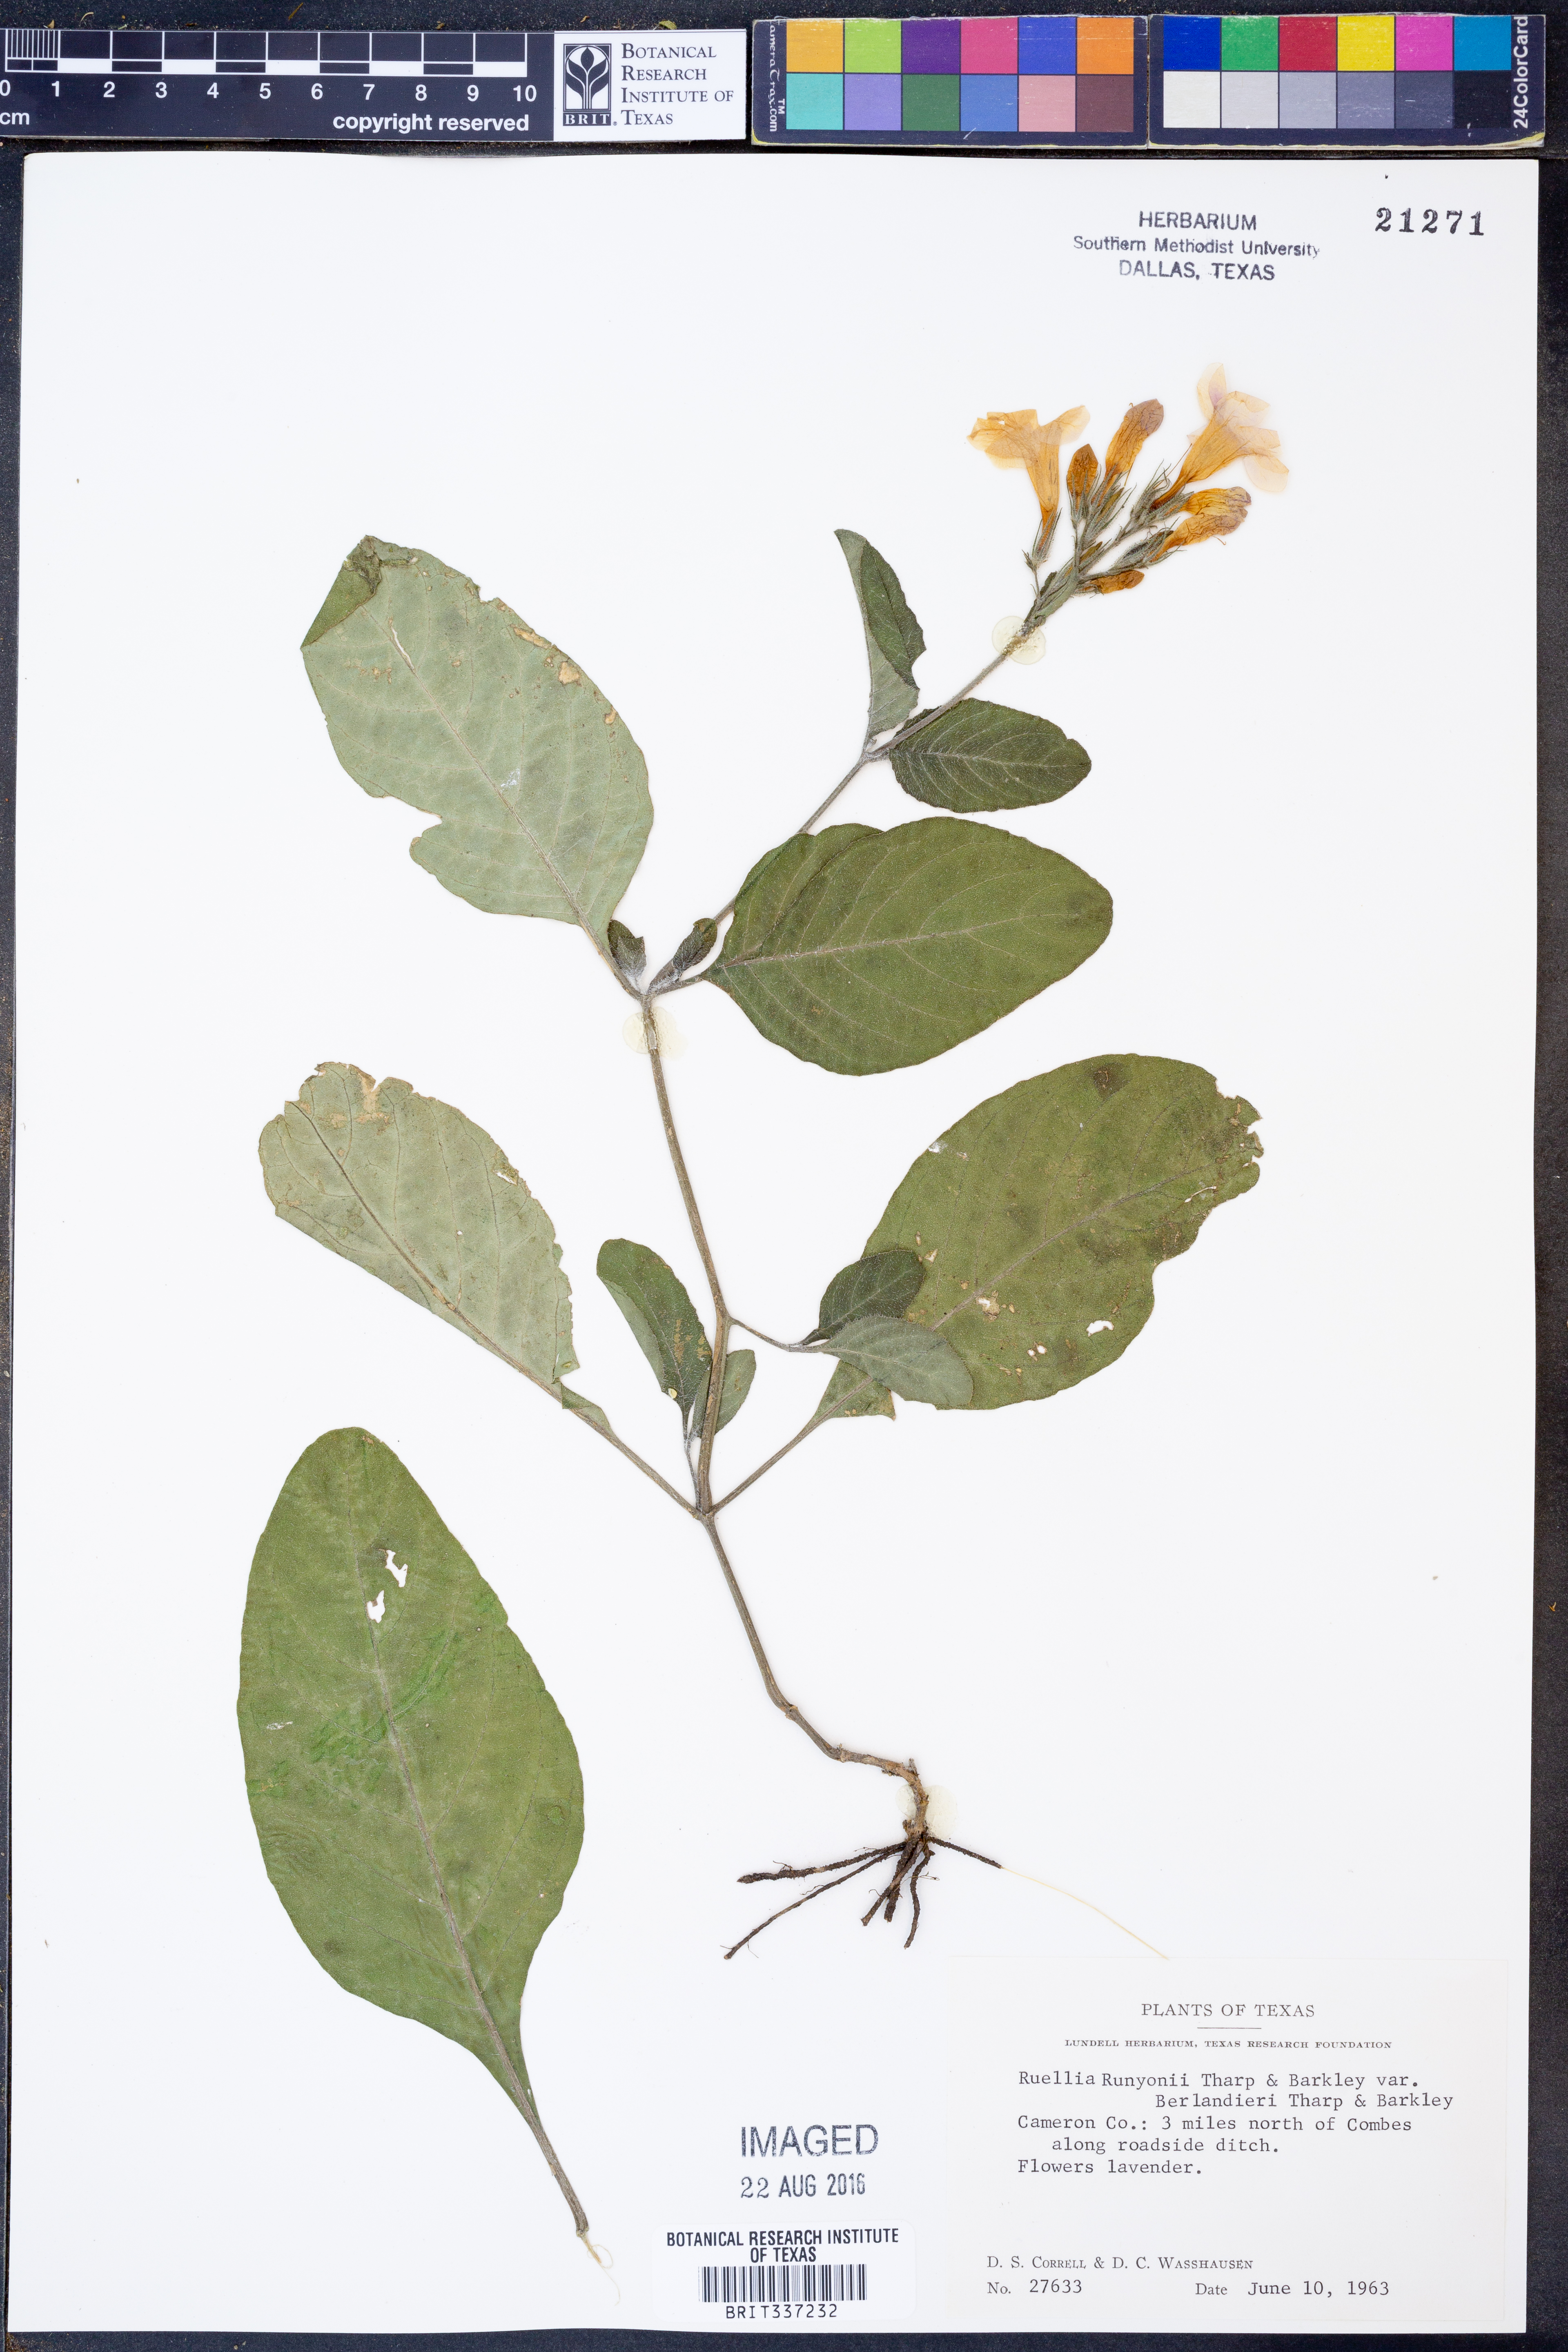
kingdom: Plantae
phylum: Tracheophyta
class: Magnoliopsida
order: Lamiales
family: Acanthaceae
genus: Ruellia
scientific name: Ruellia ciliatiflora
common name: Hairyflower wild petunia
